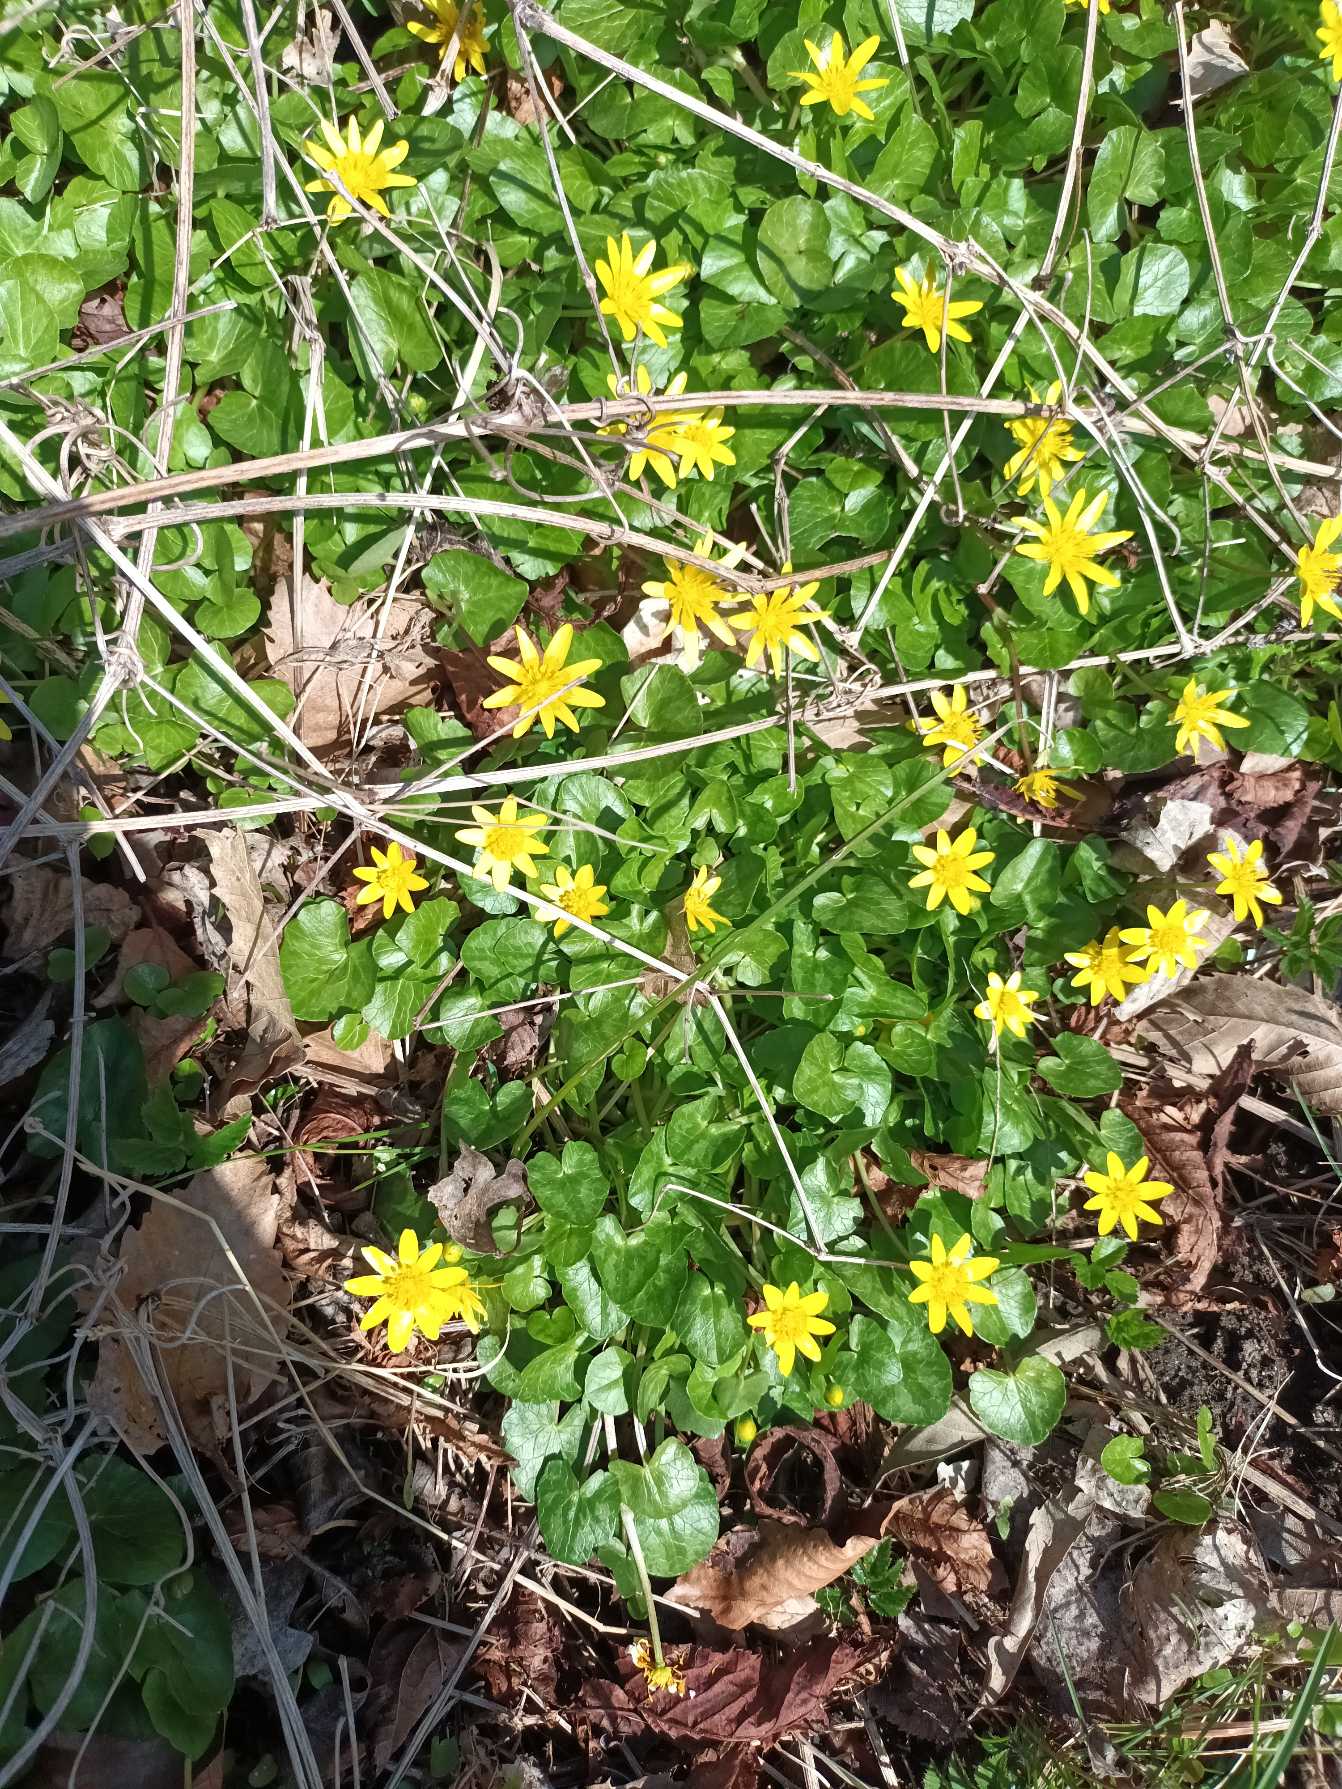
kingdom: Plantae
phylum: Tracheophyta
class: Magnoliopsida
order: Ranunculales
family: Ranunculaceae
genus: Ficaria
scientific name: Ficaria verna
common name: Vorterod
